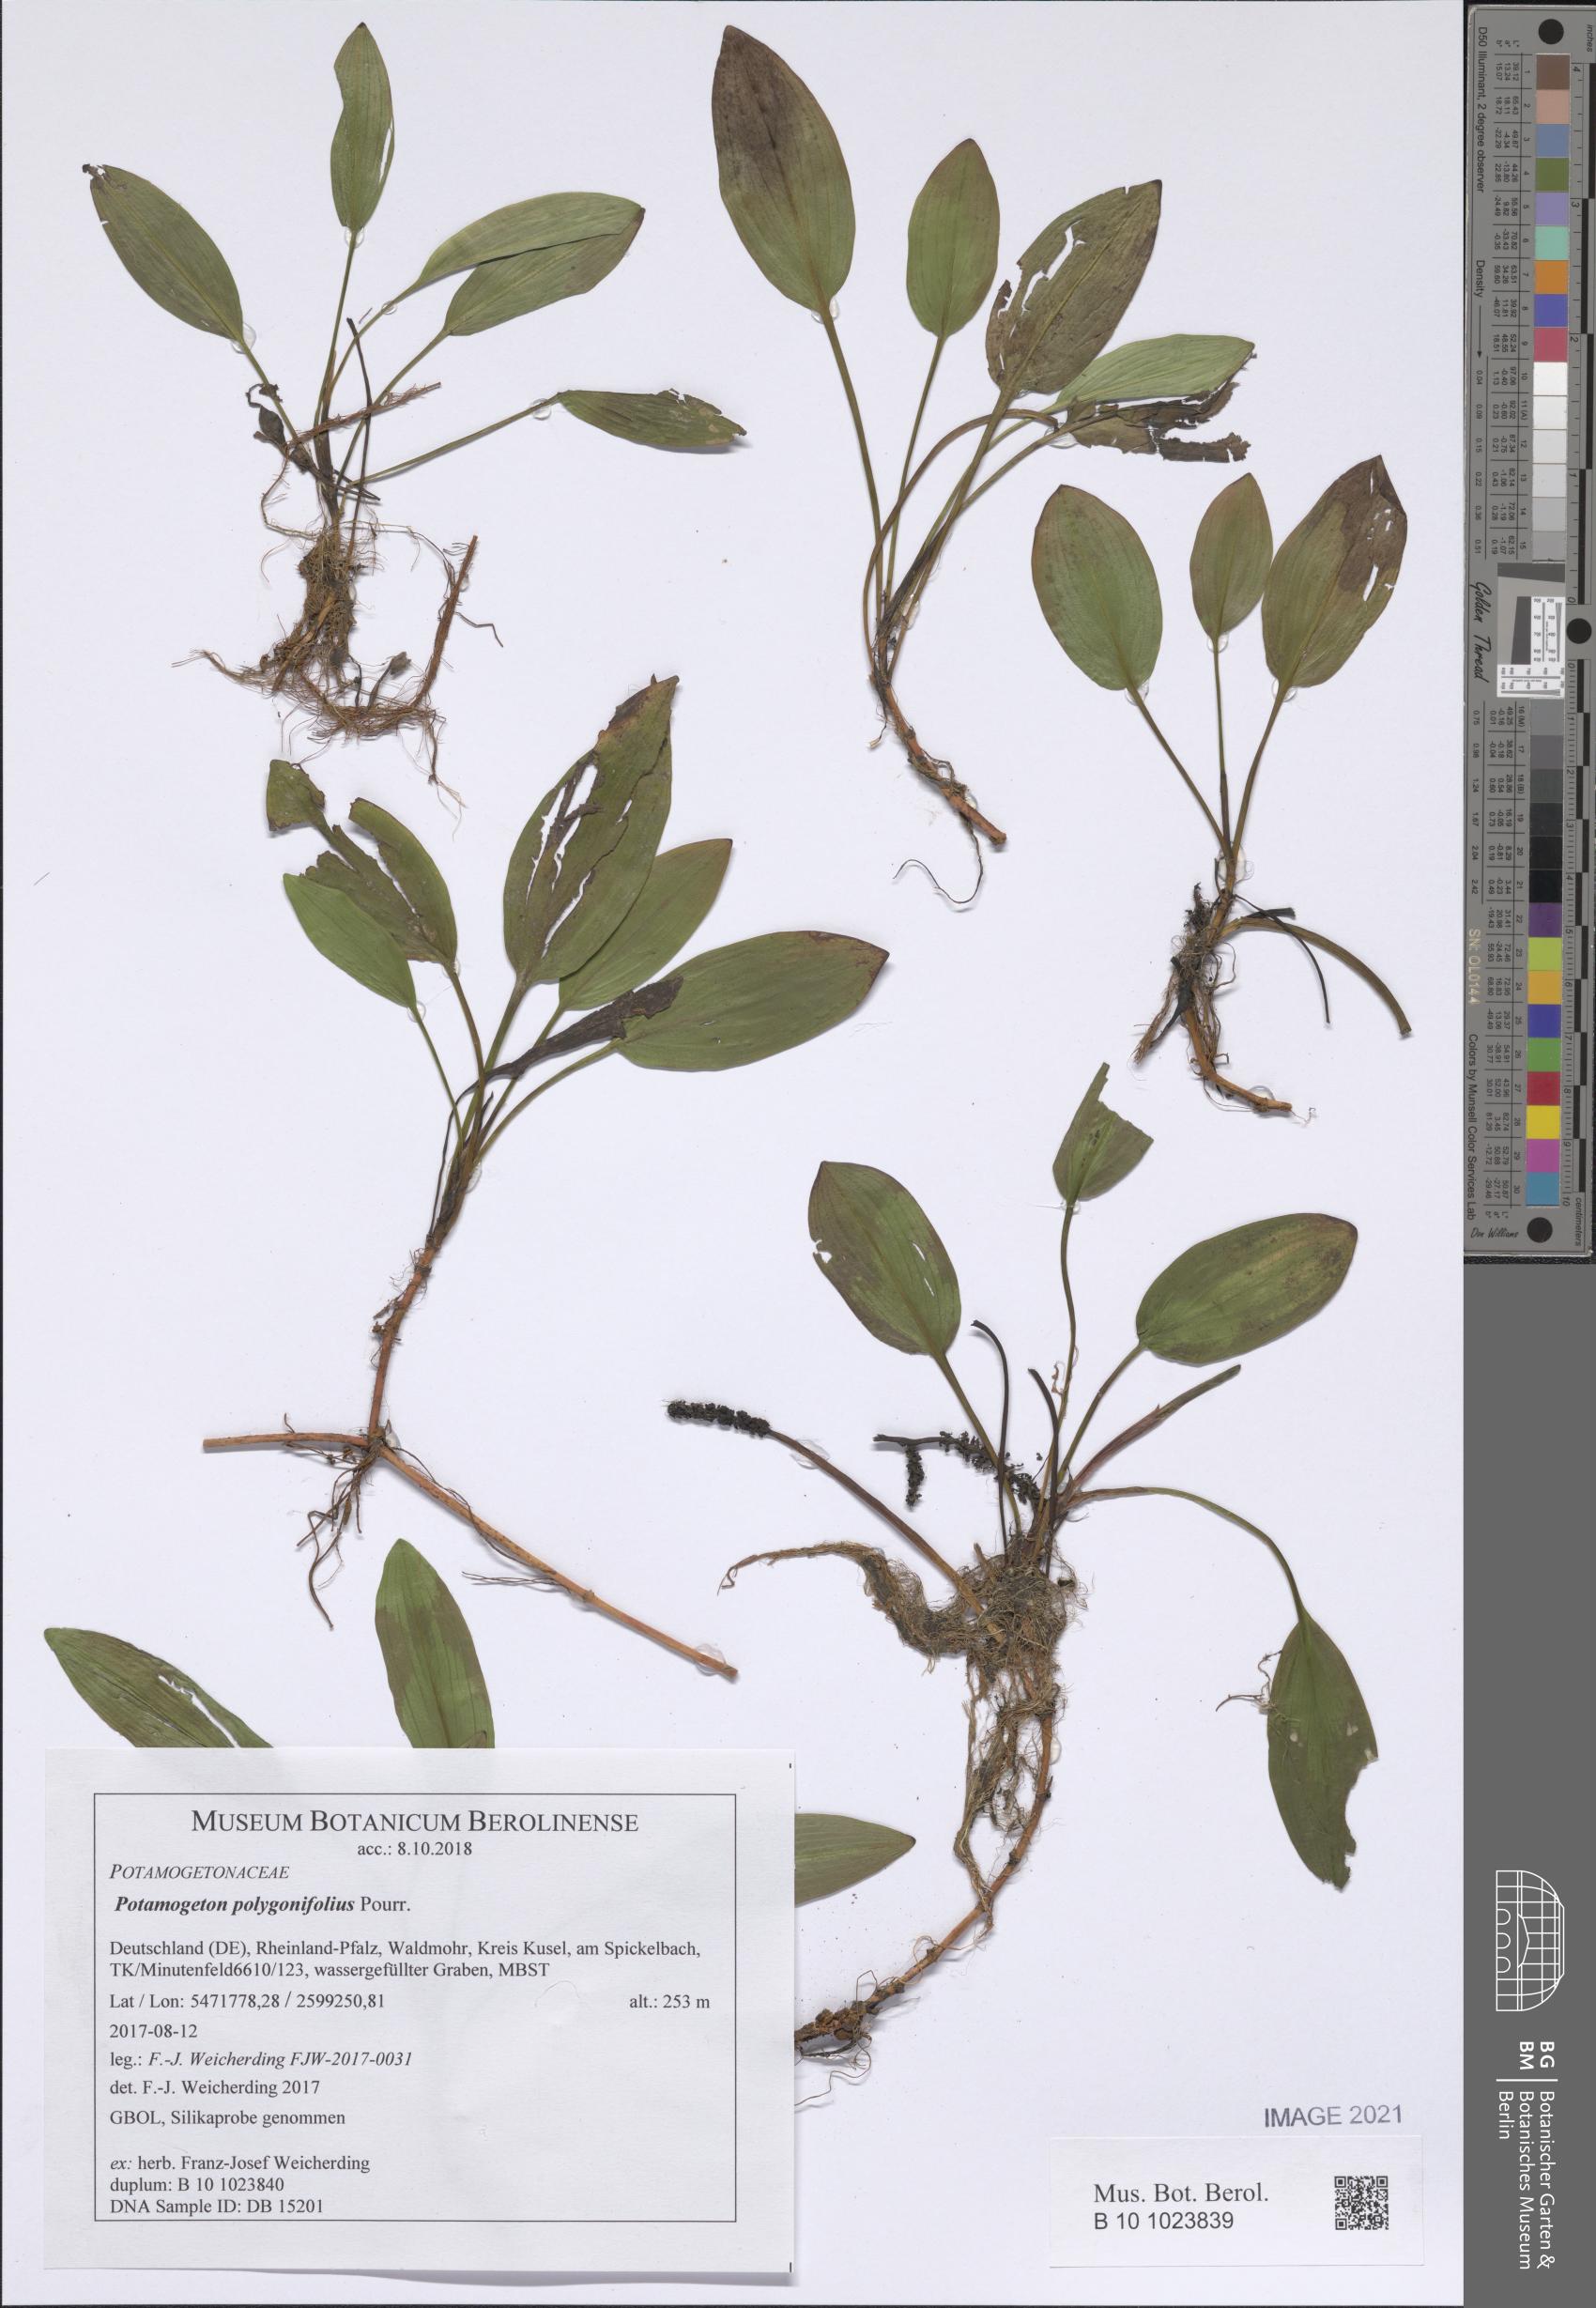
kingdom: Plantae
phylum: Tracheophyta
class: Liliopsida
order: Alismatales
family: Potamogetonaceae
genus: Potamogeton
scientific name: Potamogeton polygonifolius
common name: Bog pondweed
